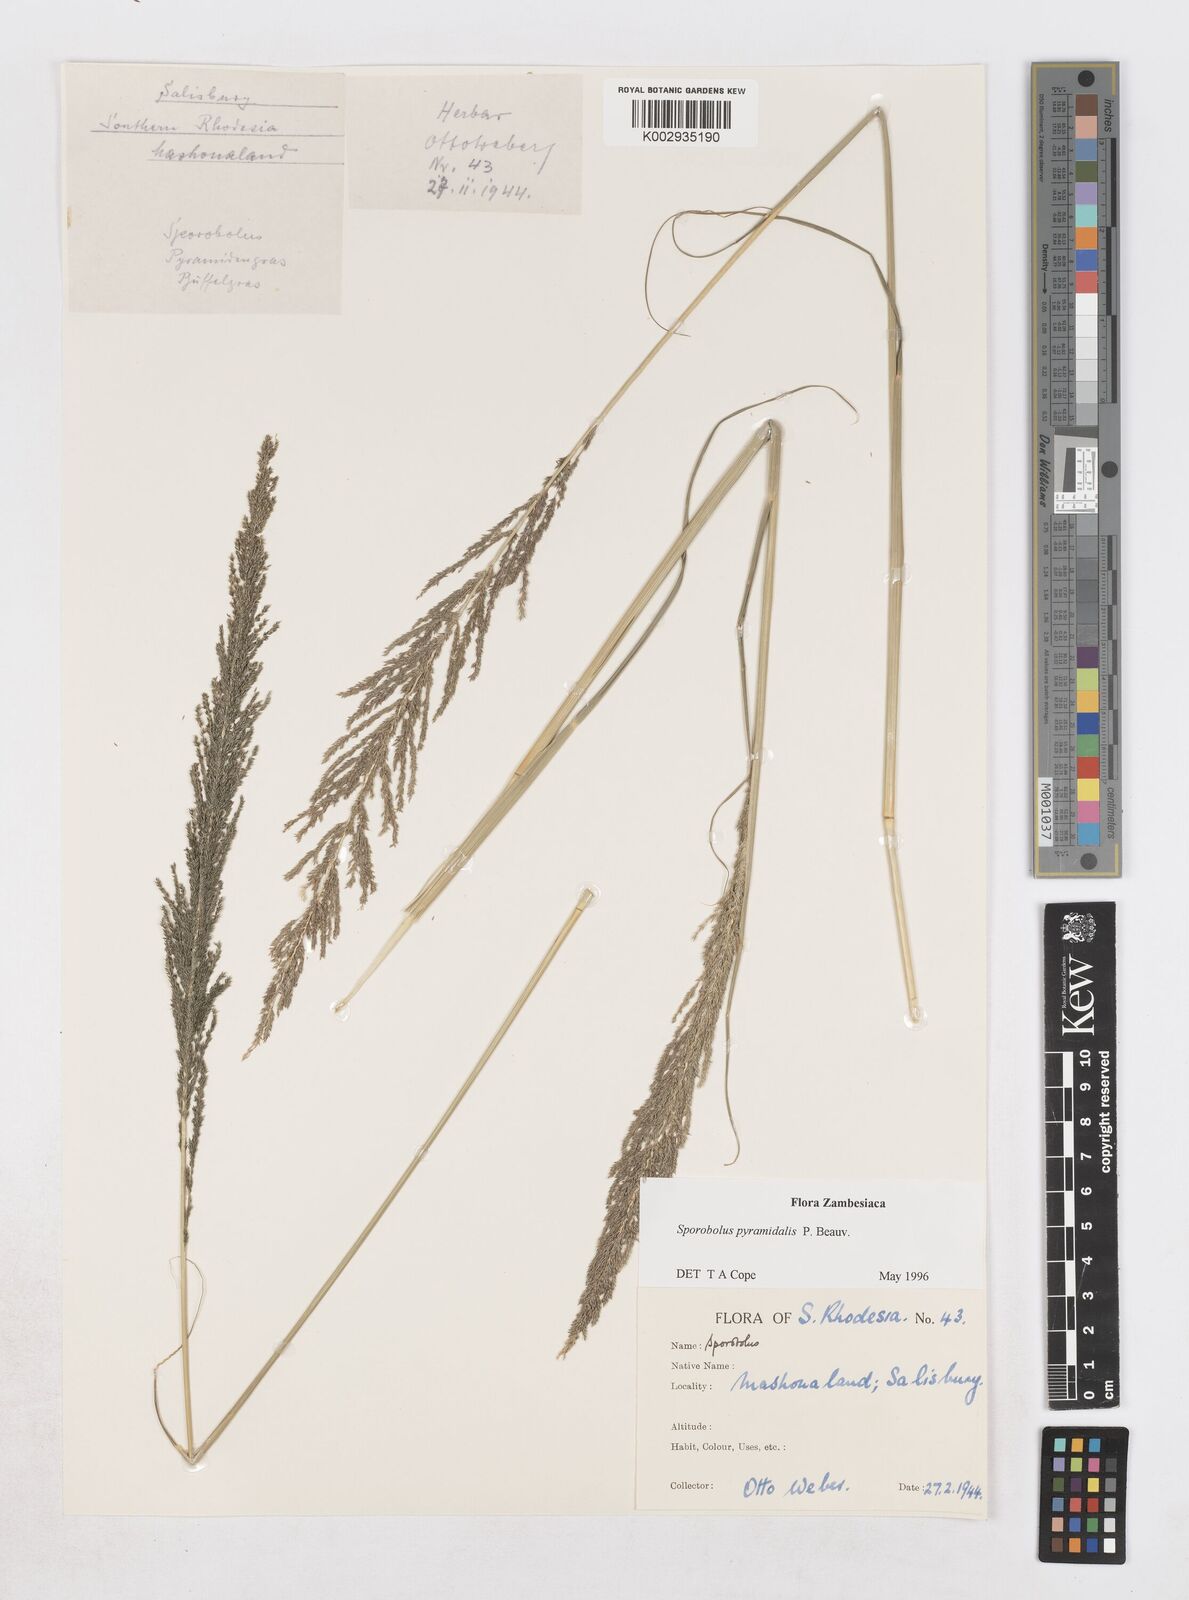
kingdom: Plantae
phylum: Tracheophyta
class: Liliopsida
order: Poales
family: Poaceae
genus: Sporobolus
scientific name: Sporobolus pyramidalis
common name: West indian dropseed
